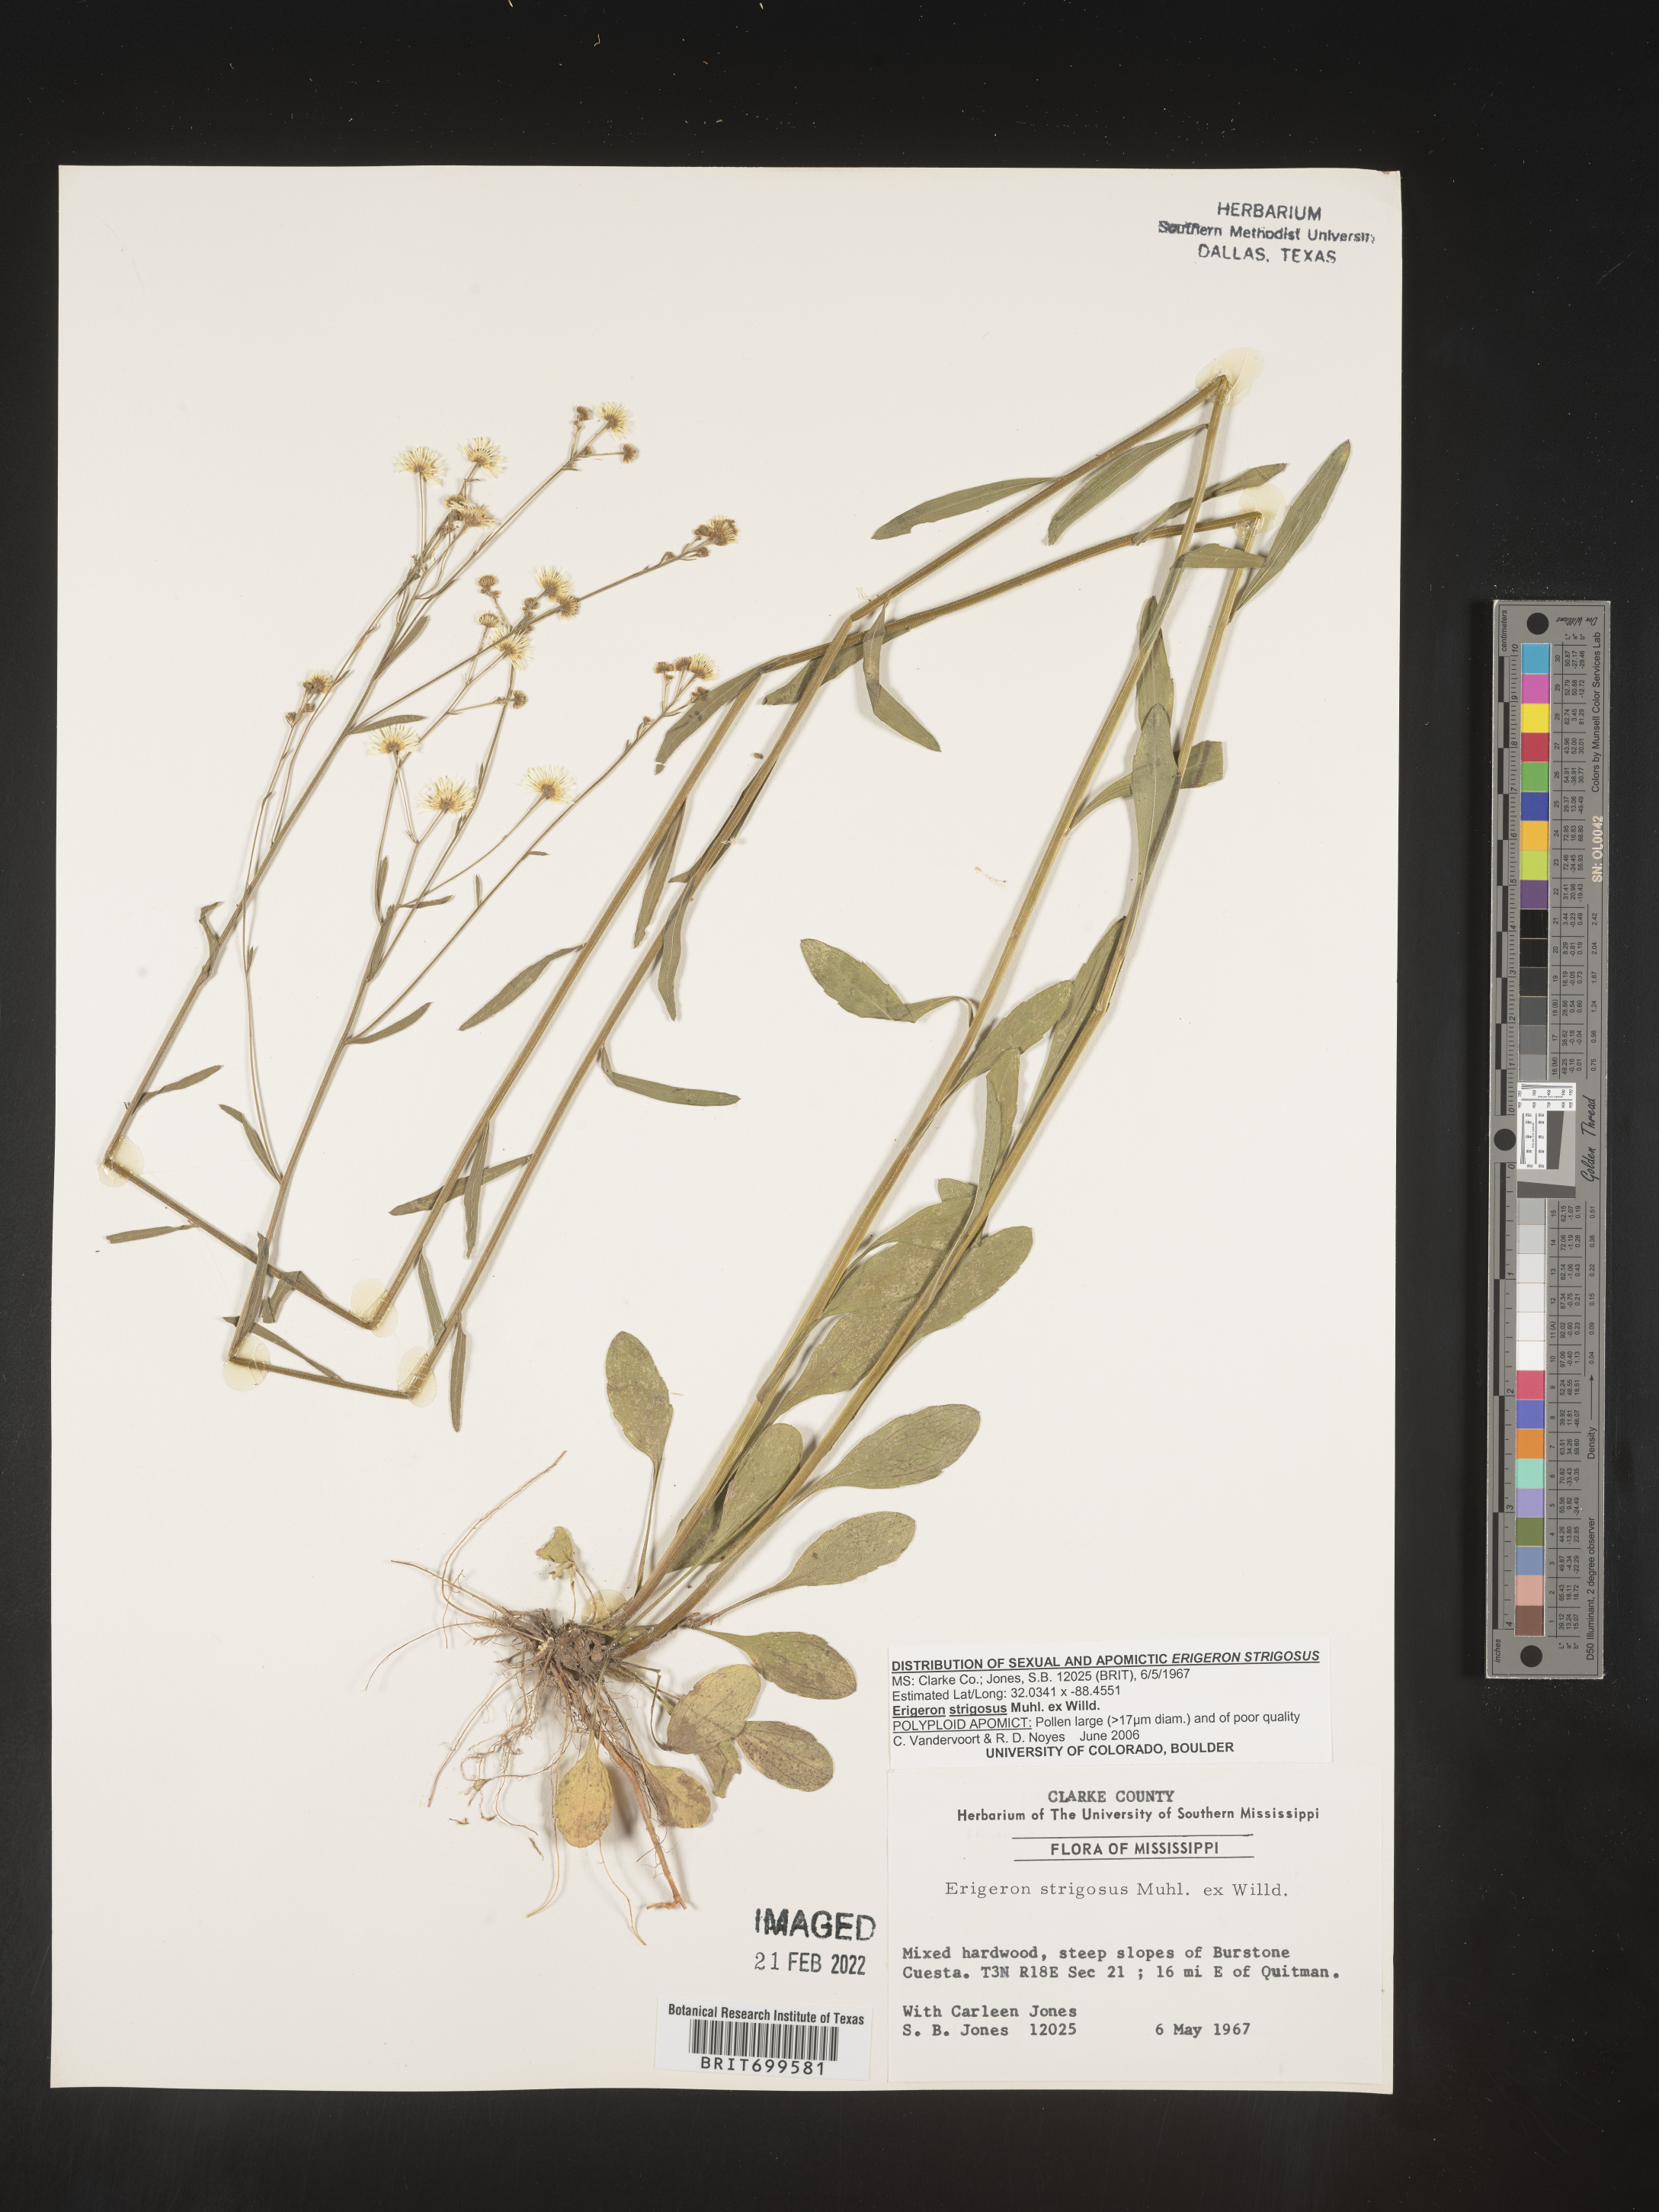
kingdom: Plantae
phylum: Tracheophyta
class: Magnoliopsida
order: Asterales
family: Asteraceae
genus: Erigeron
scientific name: Erigeron strigosus
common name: Common eastern fleabane
